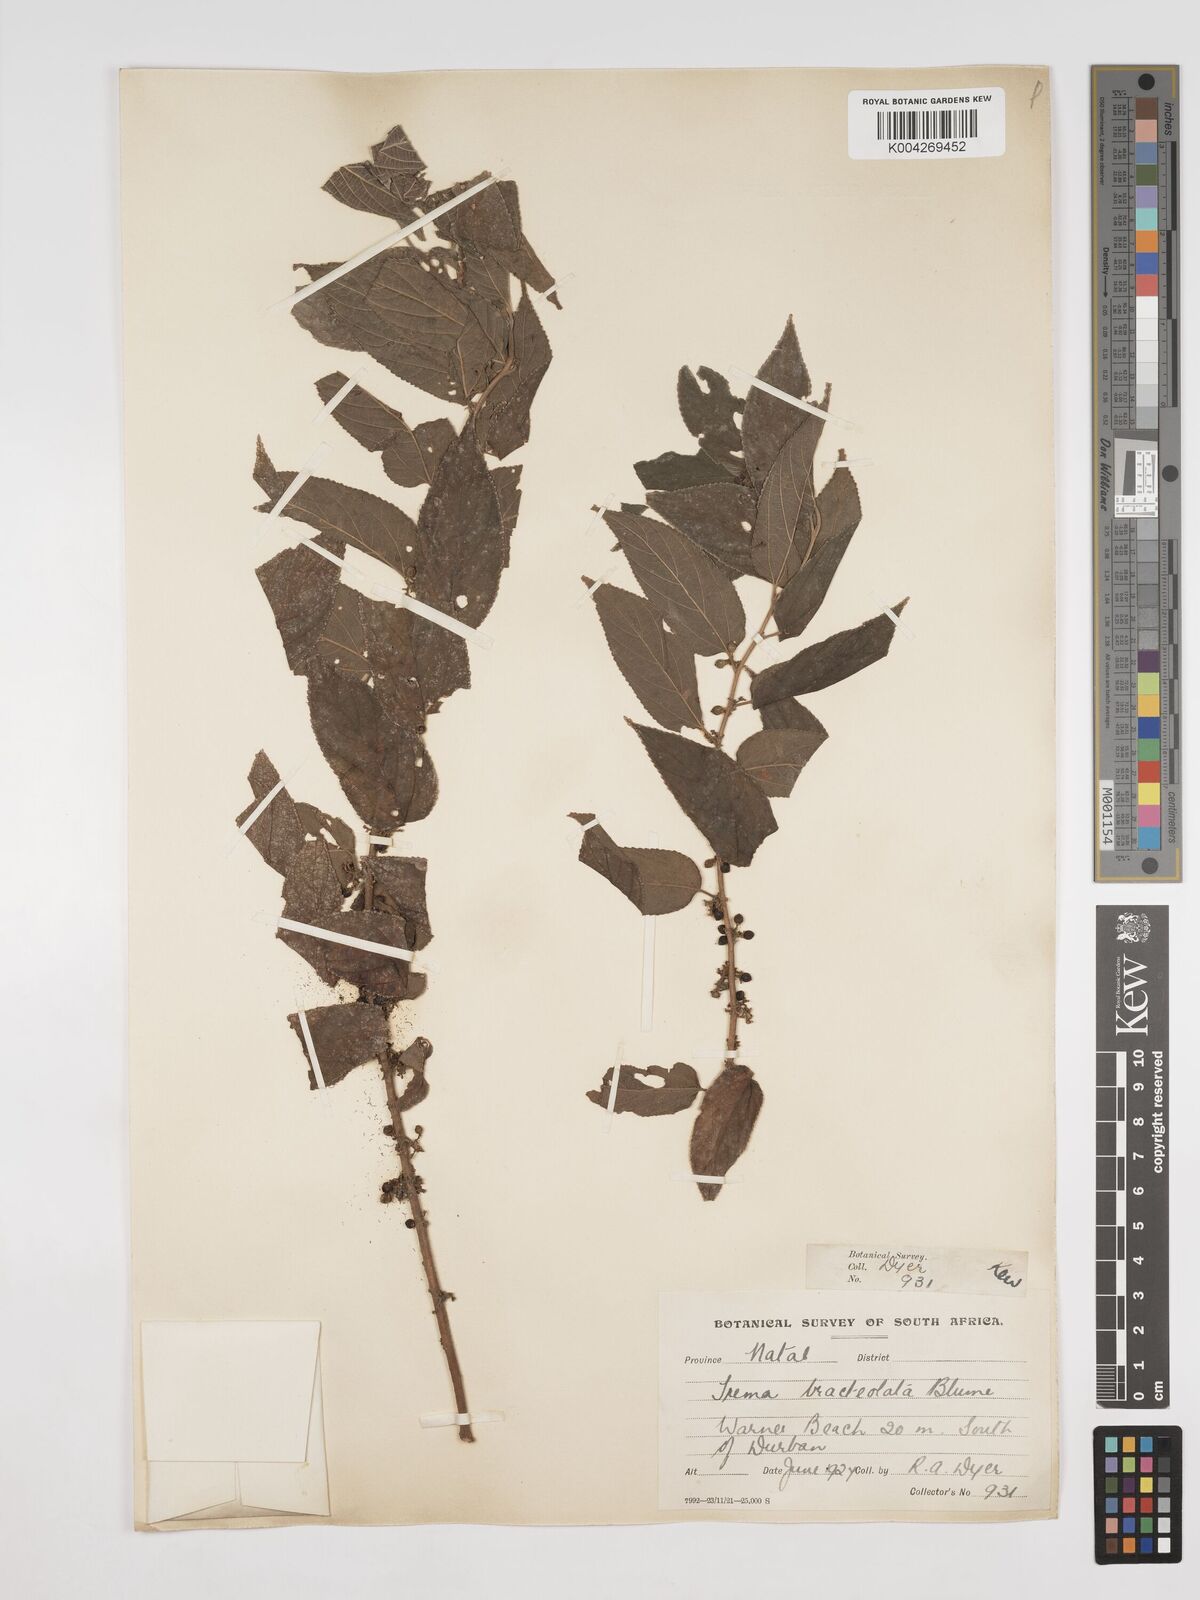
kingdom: Plantae
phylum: Tracheophyta
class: Magnoliopsida
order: Rosales
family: Cannabaceae
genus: Trema
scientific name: Trema orientale
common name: Indian charcoal tree
